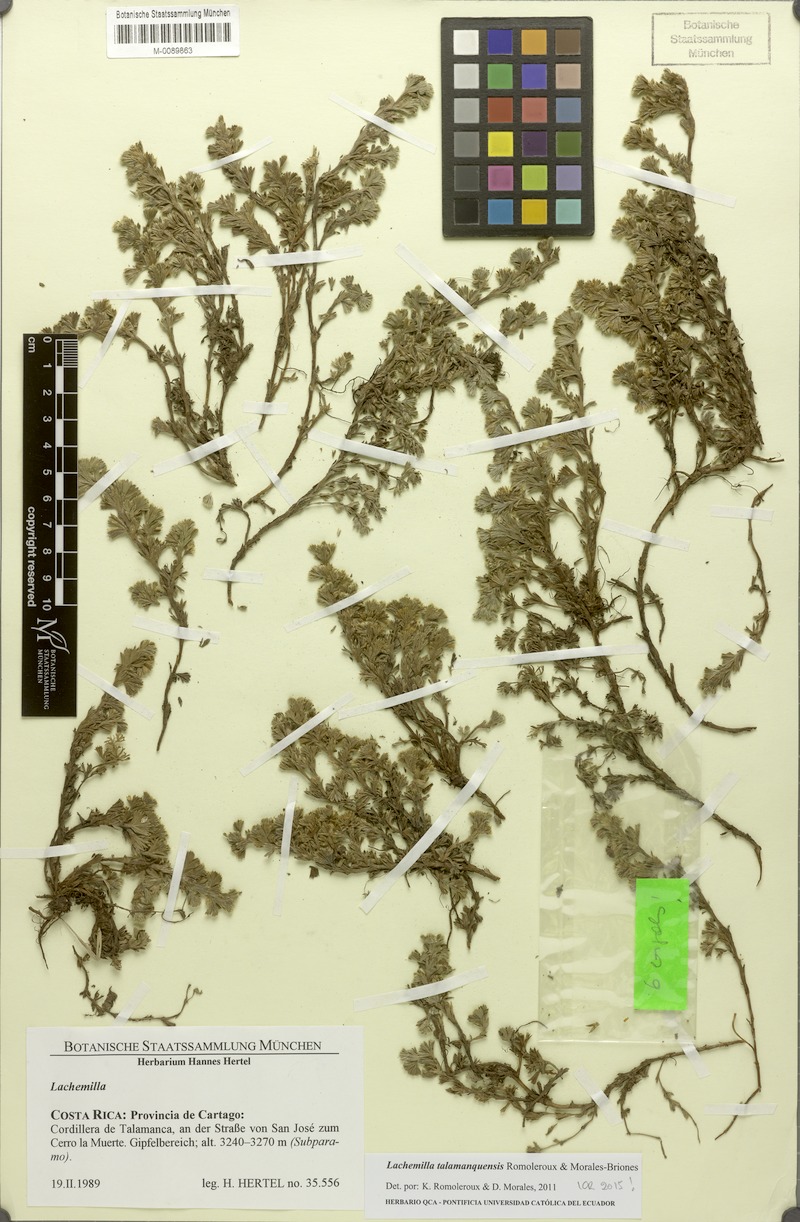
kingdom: Plantae
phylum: Tracheophyta
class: Magnoliopsida
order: Rosales
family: Rosaceae
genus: Lachemilla
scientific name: Lachemilla standleyi
